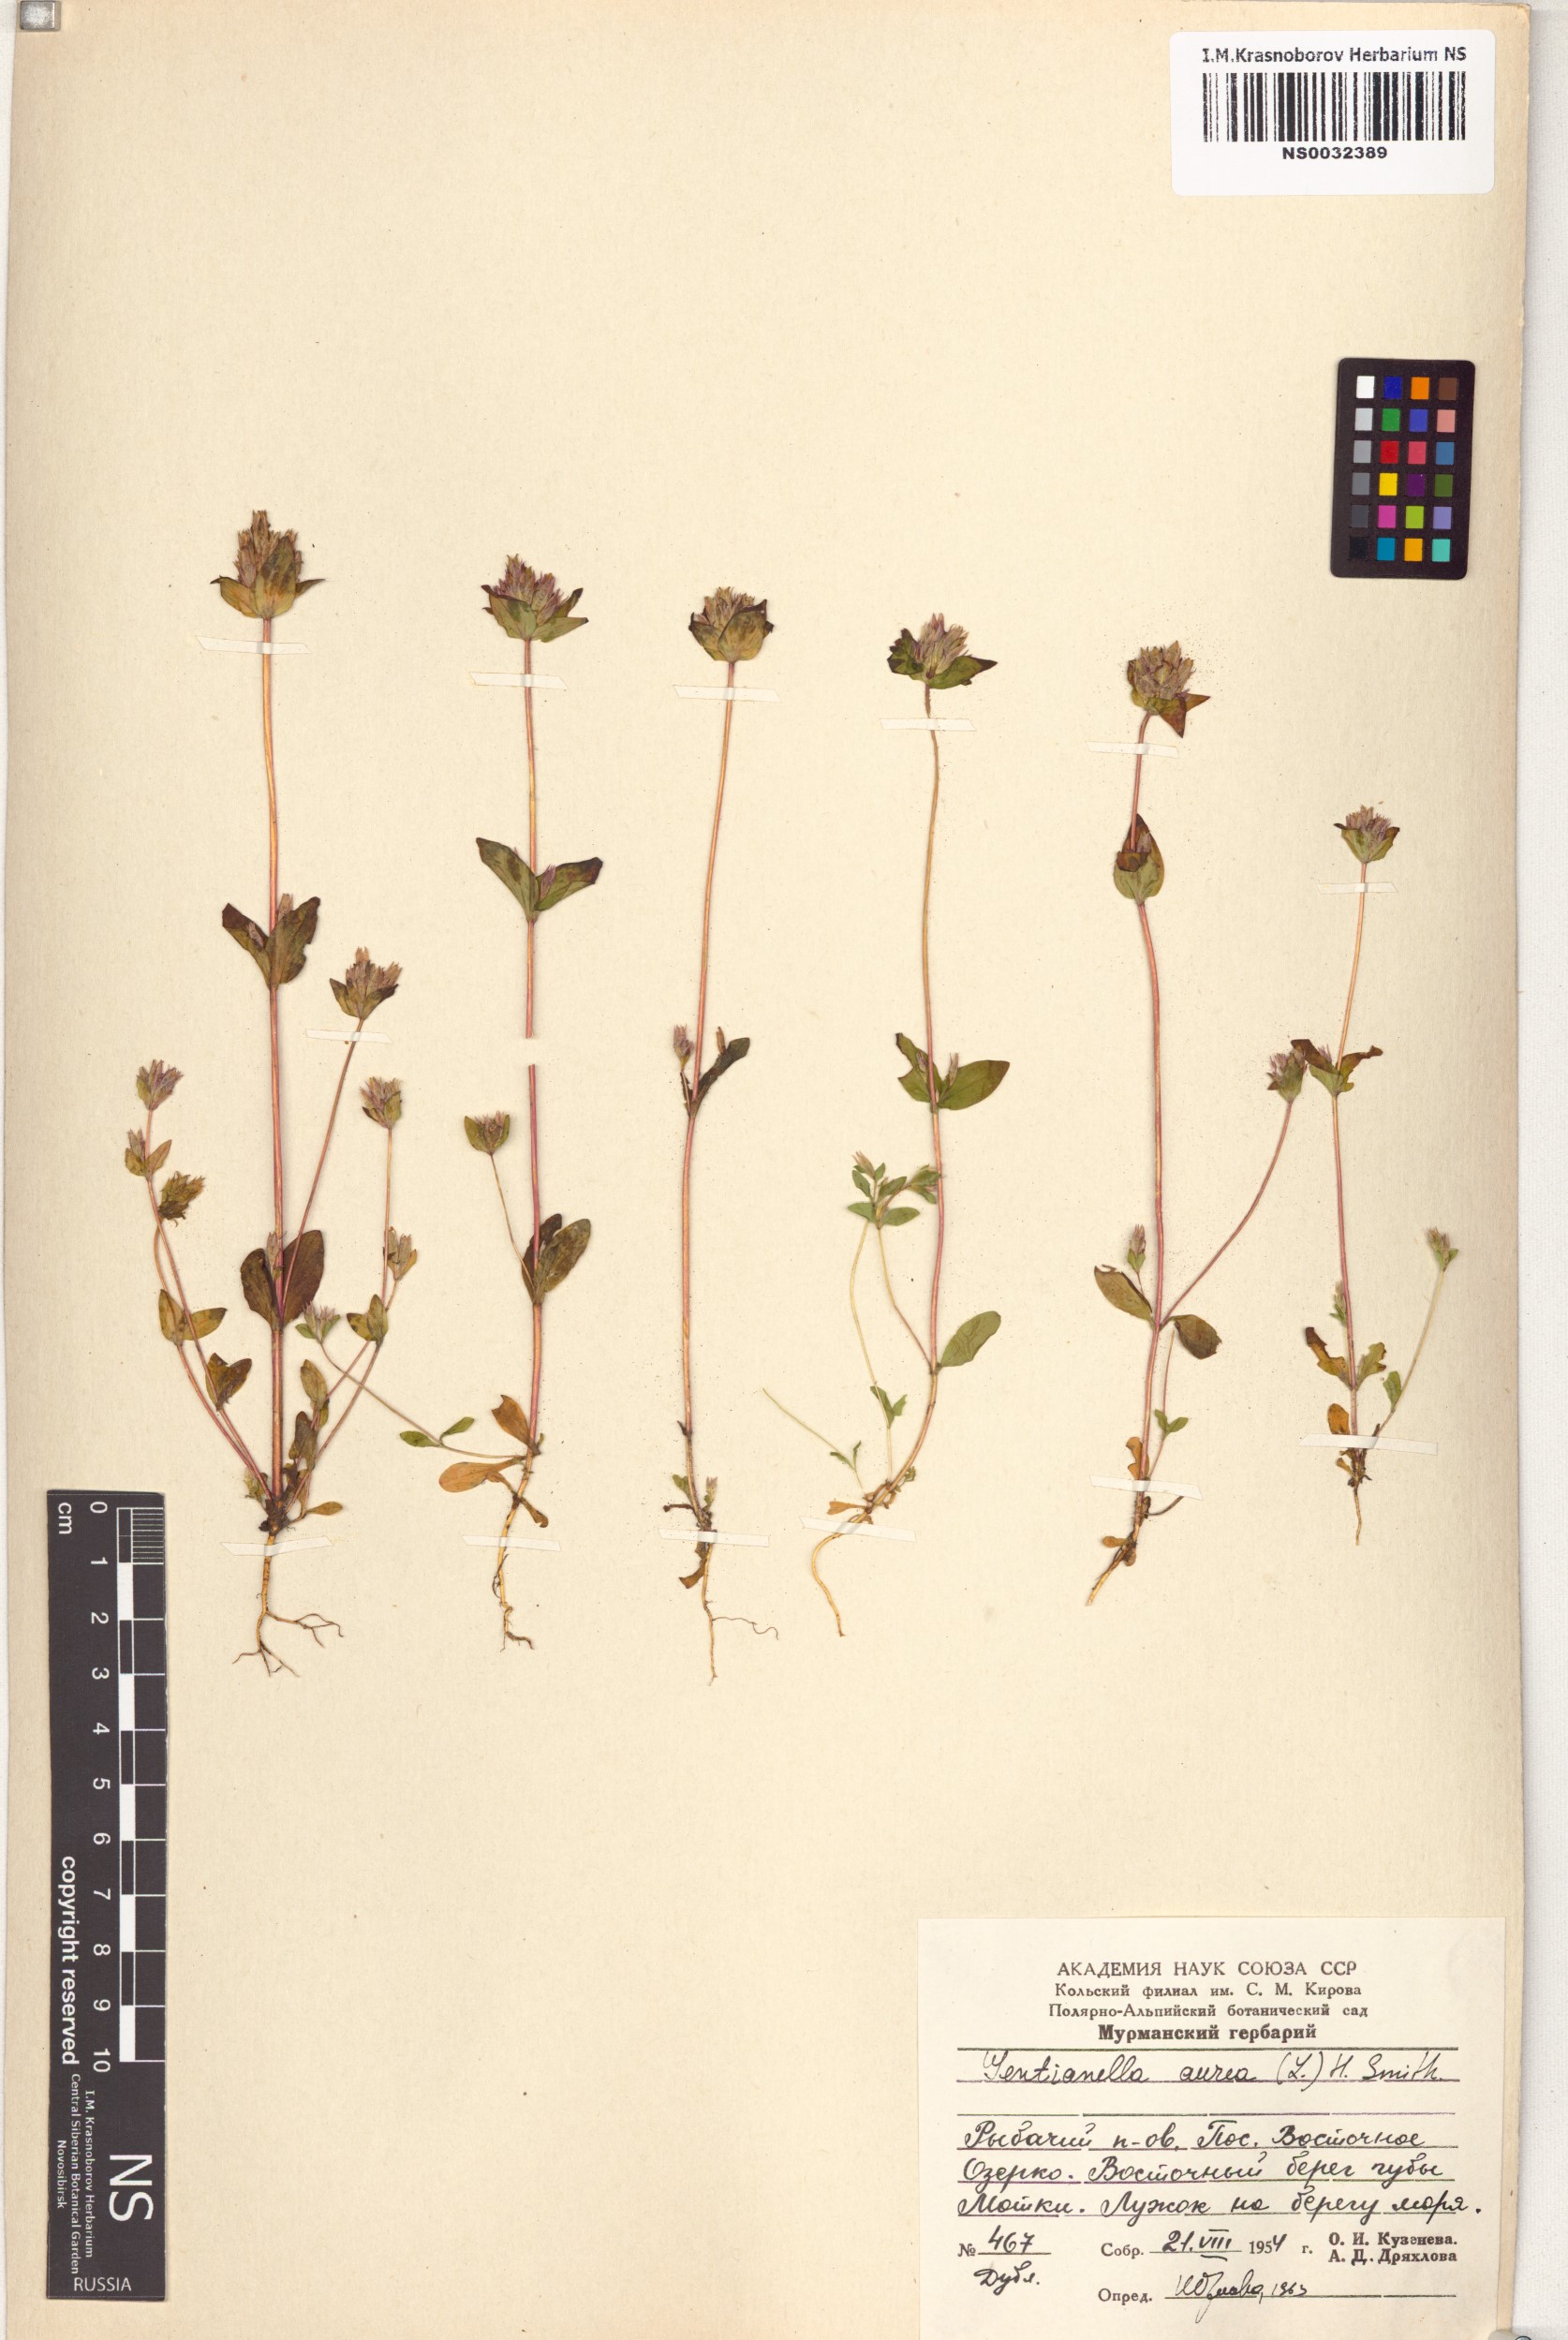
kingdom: Plantae
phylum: Tracheophyta
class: Magnoliopsida
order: Gentianales
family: Gentianaceae
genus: Gentianella
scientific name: Gentianella aurea
